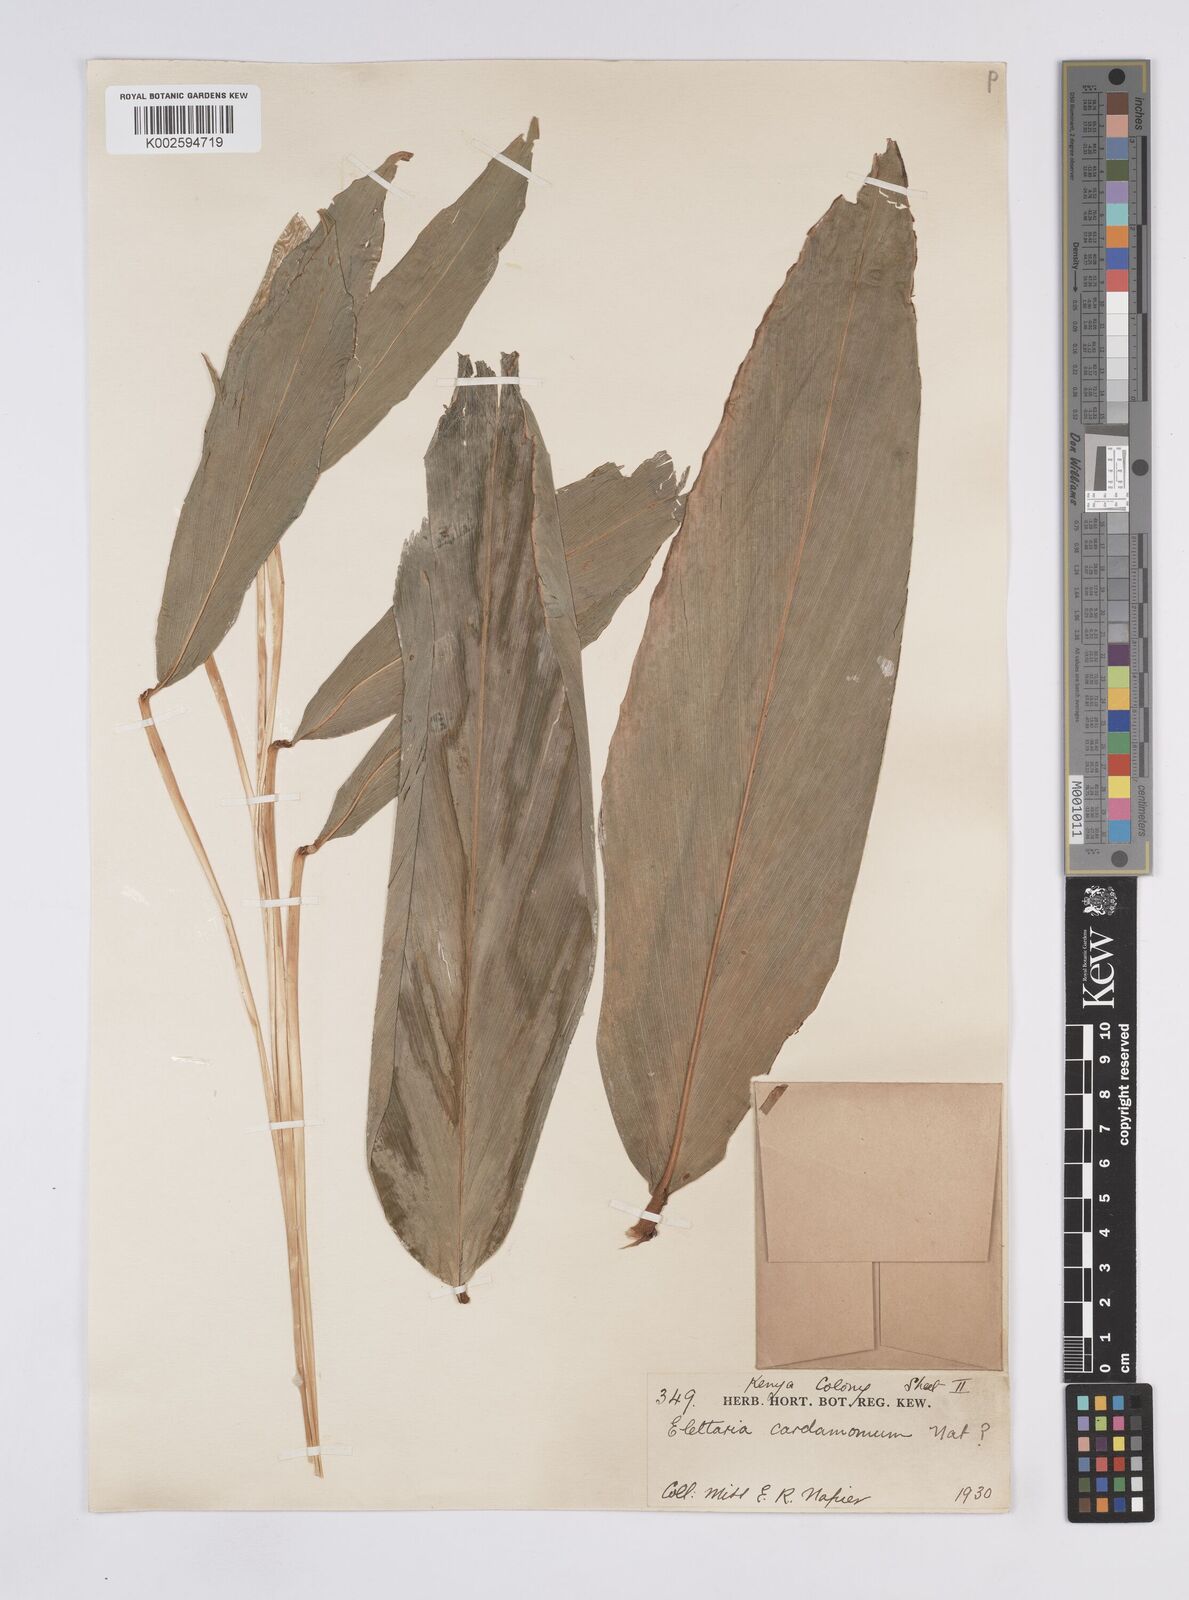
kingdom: Plantae
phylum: Tracheophyta
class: Liliopsida
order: Zingiberales
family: Zingiberaceae
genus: Elettaria
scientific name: Elettaria cardamomum
